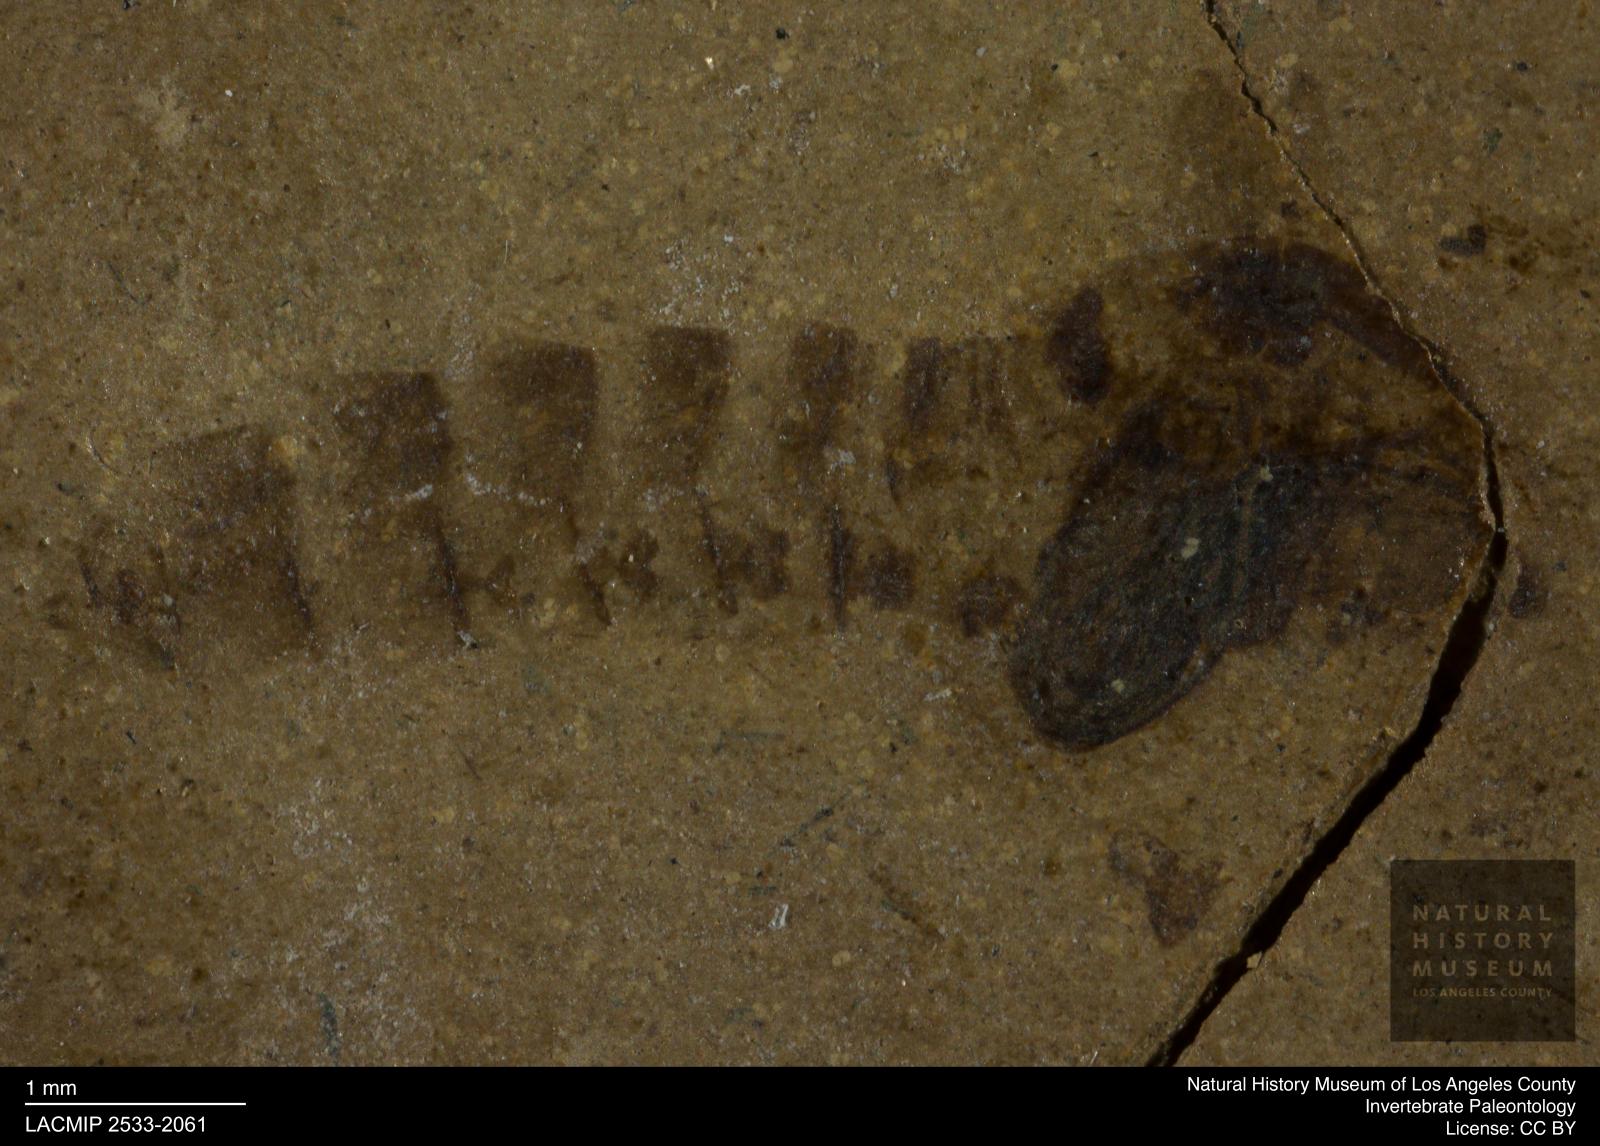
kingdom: Animalia
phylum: Arthropoda
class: Insecta
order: Diptera
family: Chironomidae
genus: Pelopiina
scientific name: Pelopiina
